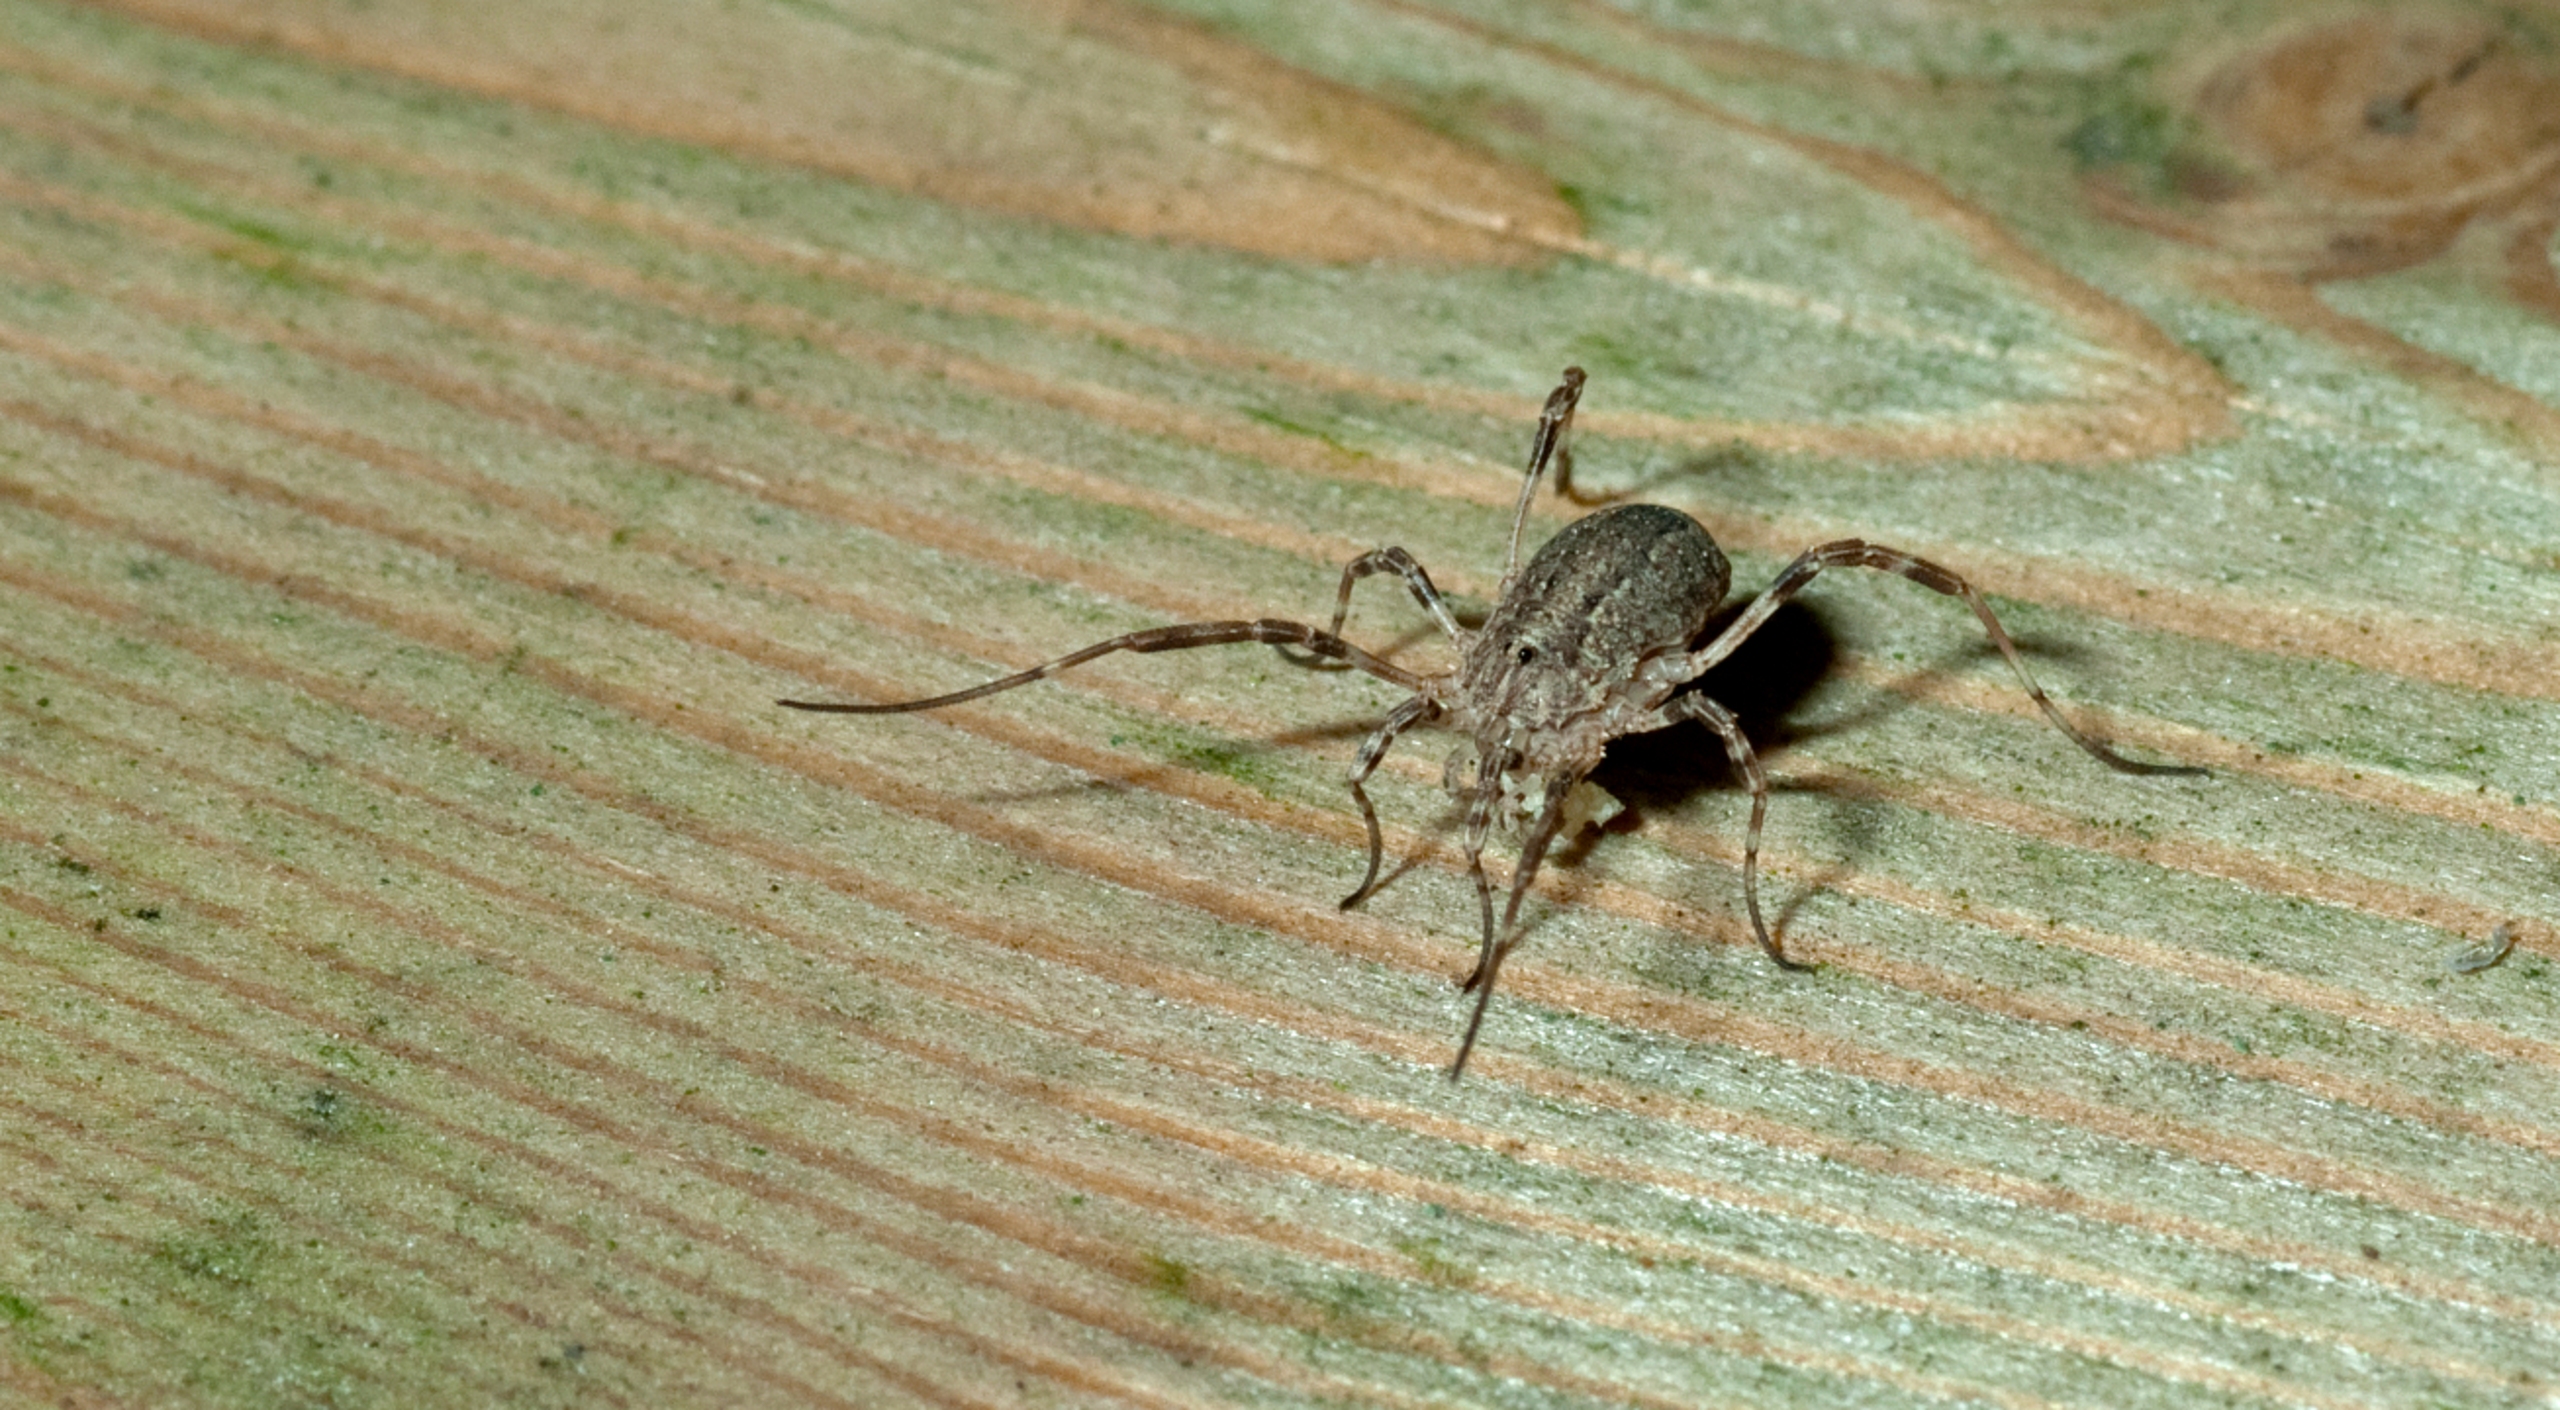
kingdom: Animalia
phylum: Arthropoda
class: Arachnida
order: Opiliones
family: Phalangiidae
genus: Odiellus
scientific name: Odiellus spinosus
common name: Kæmpemejer
